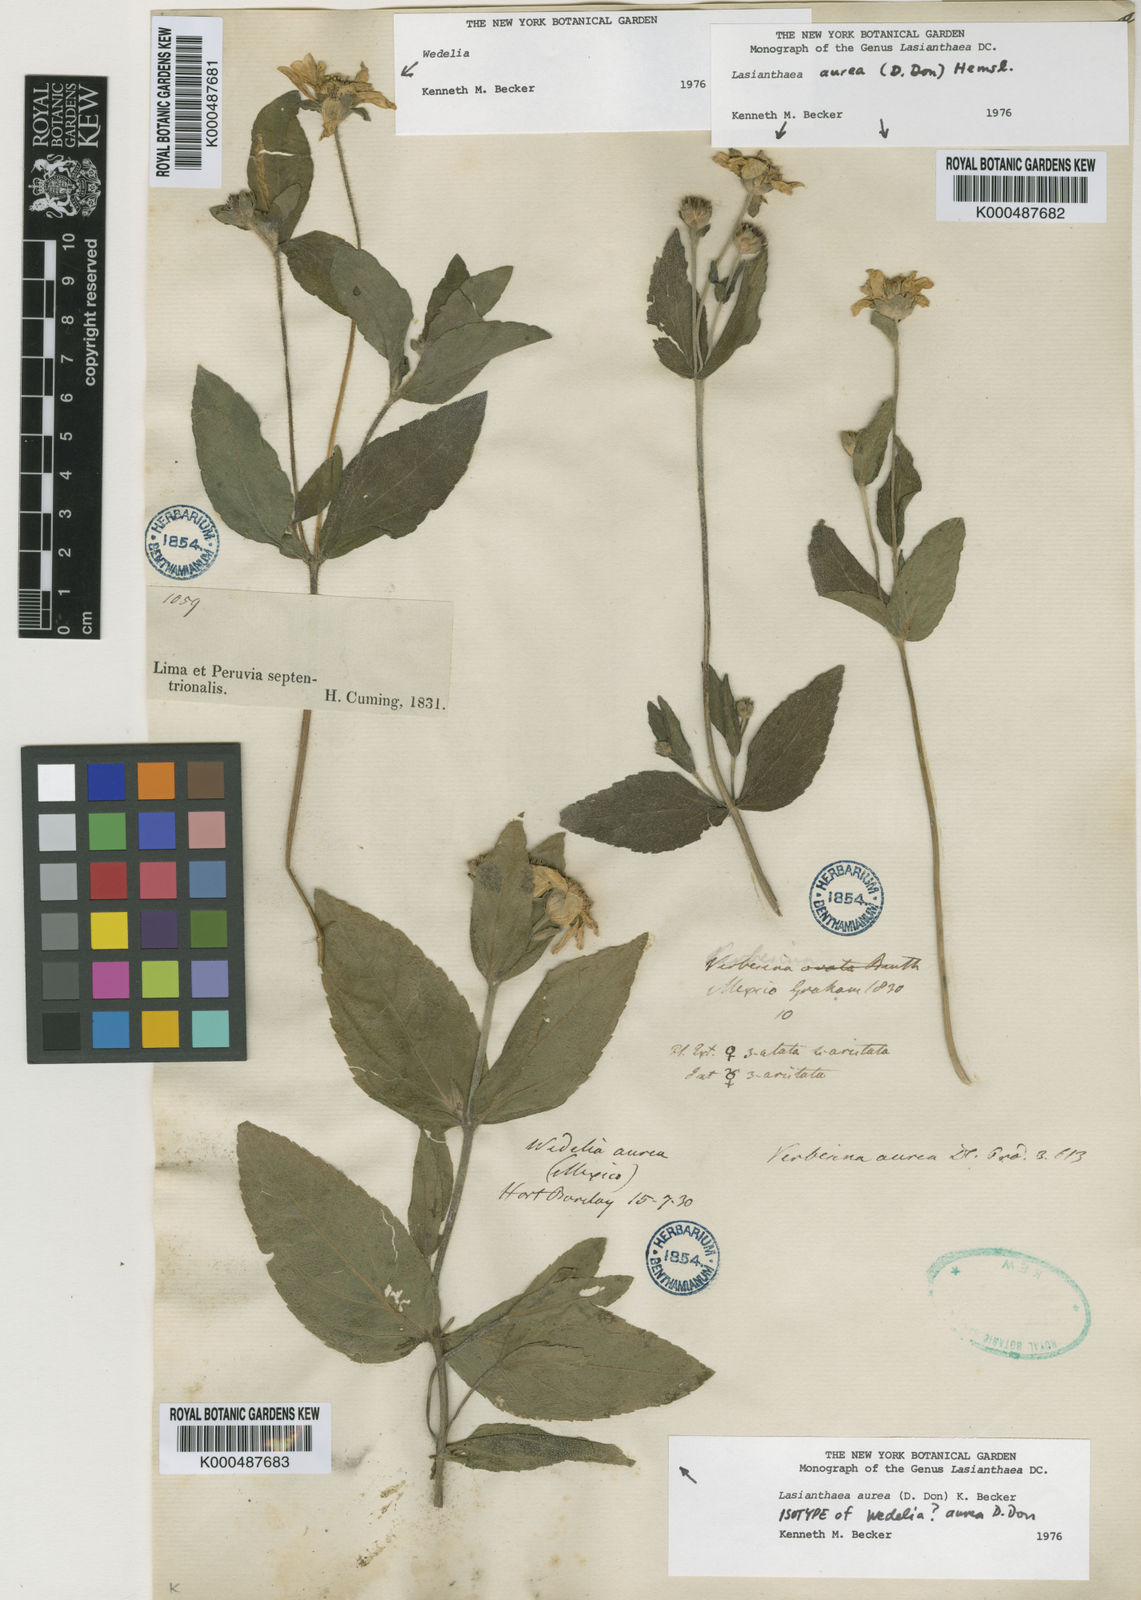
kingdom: Plantae
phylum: Tracheophyta
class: Magnoliopsida
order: Asterales
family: Asteraceae
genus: Lasianthaea
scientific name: Lasianthaea aurea
